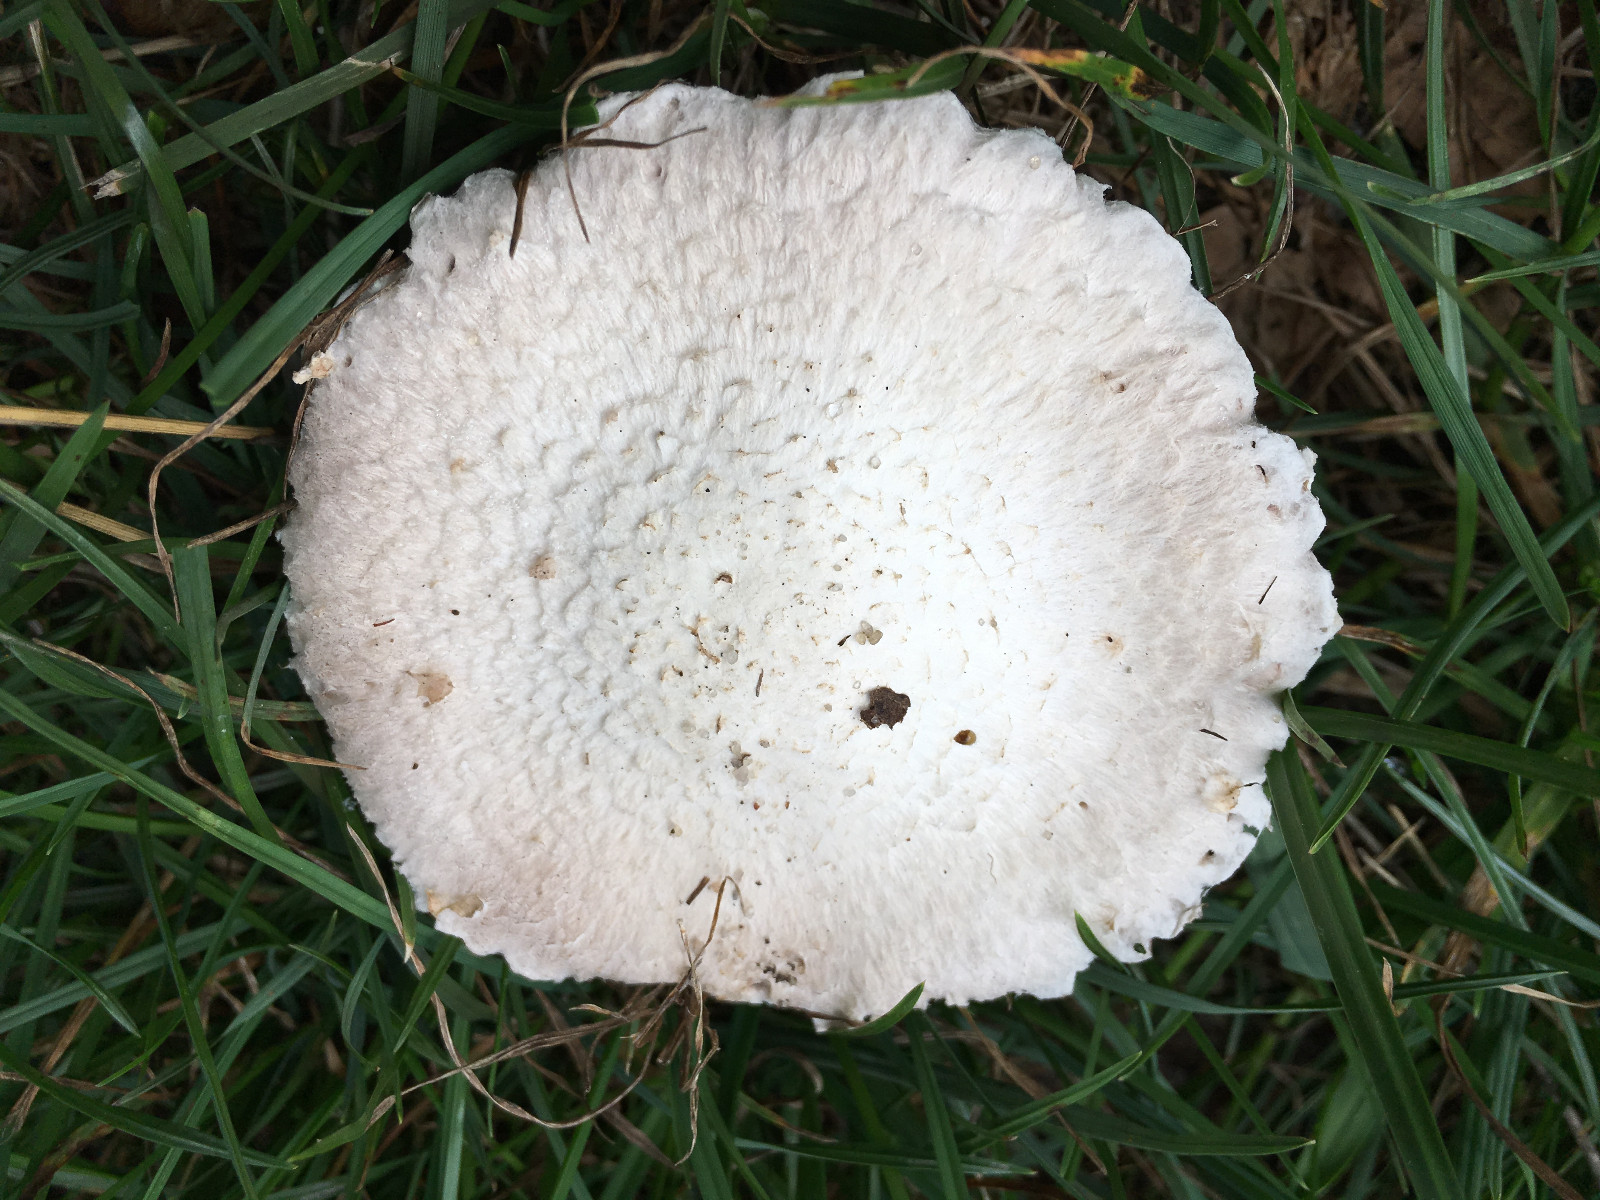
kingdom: Fungi
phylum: Basidiomycota
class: Agaricomycetes
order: Agaricales
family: Agaricaceae
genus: Agaricus
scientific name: Agaricus campestris
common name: mark-champignon
